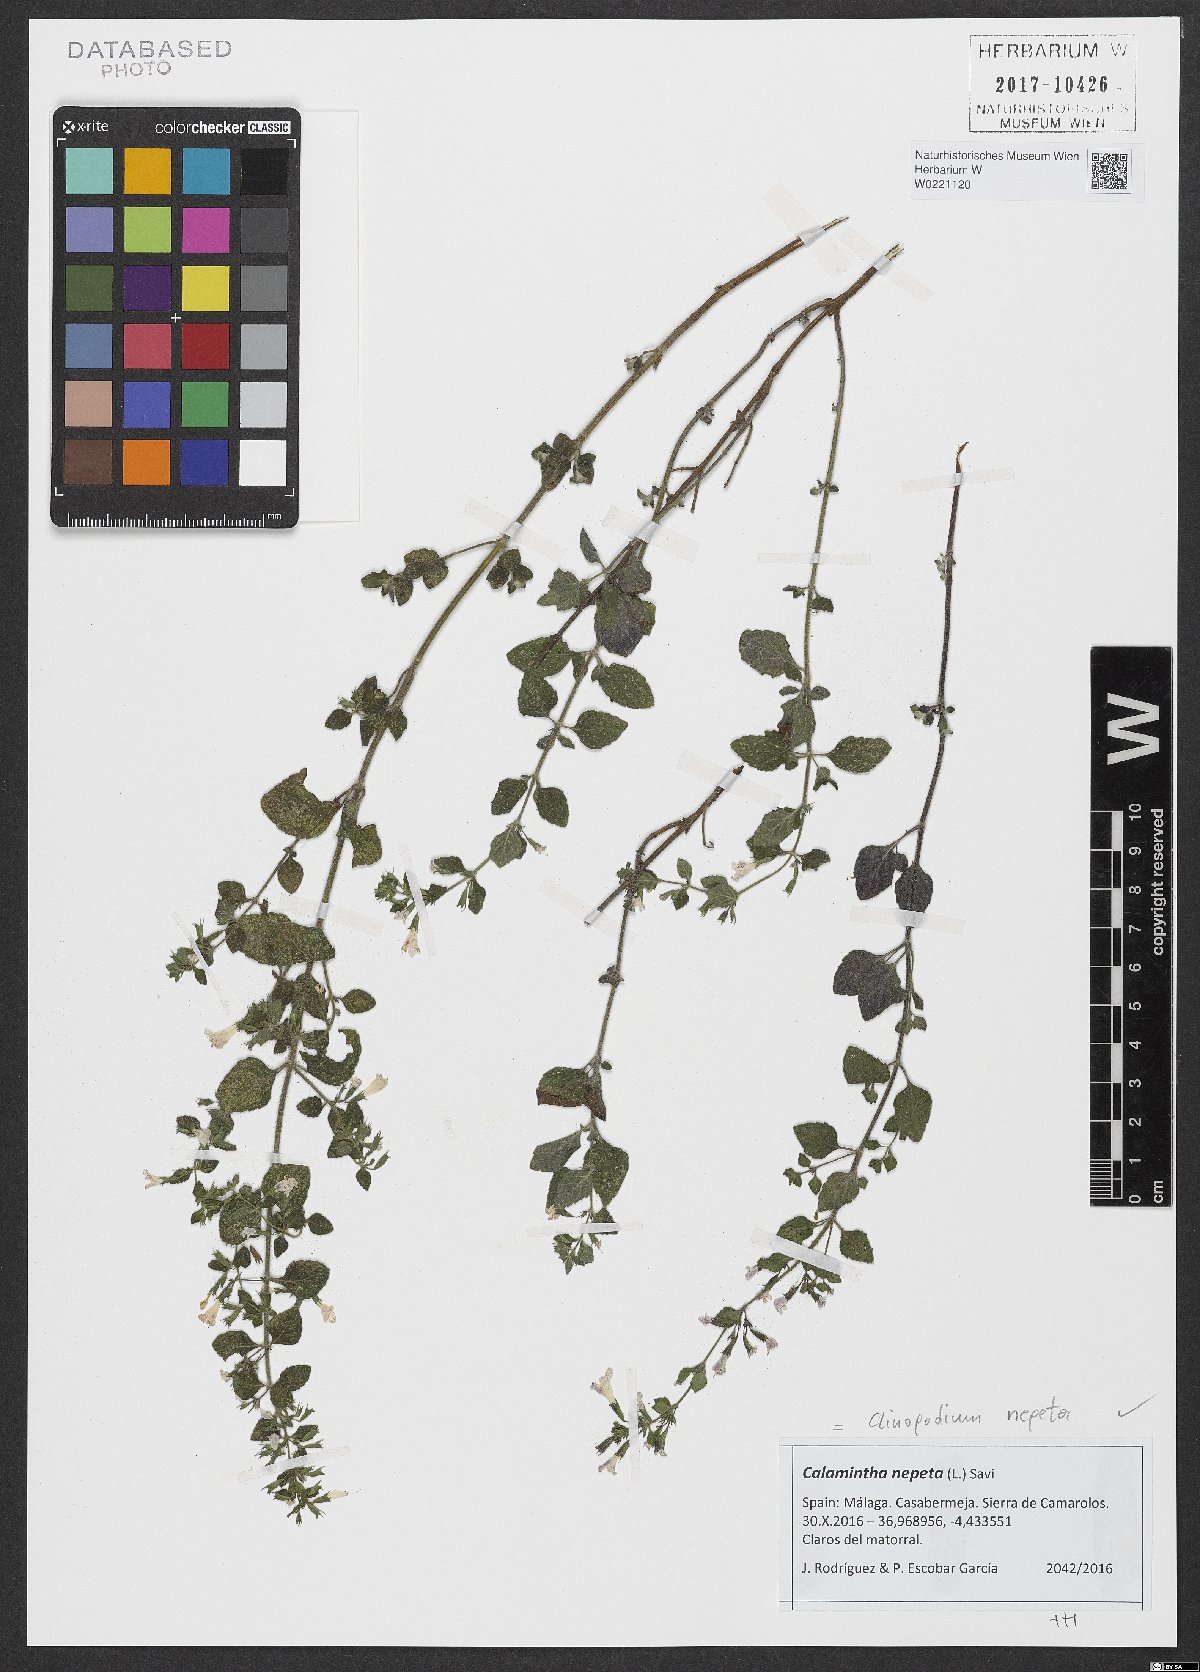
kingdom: Plantae
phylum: Tracheophyta
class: Magnoliopsida
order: Lamiales
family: Lamiaceae
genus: Clinopodium
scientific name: Clinopodium nepeta
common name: Lesser calamint
